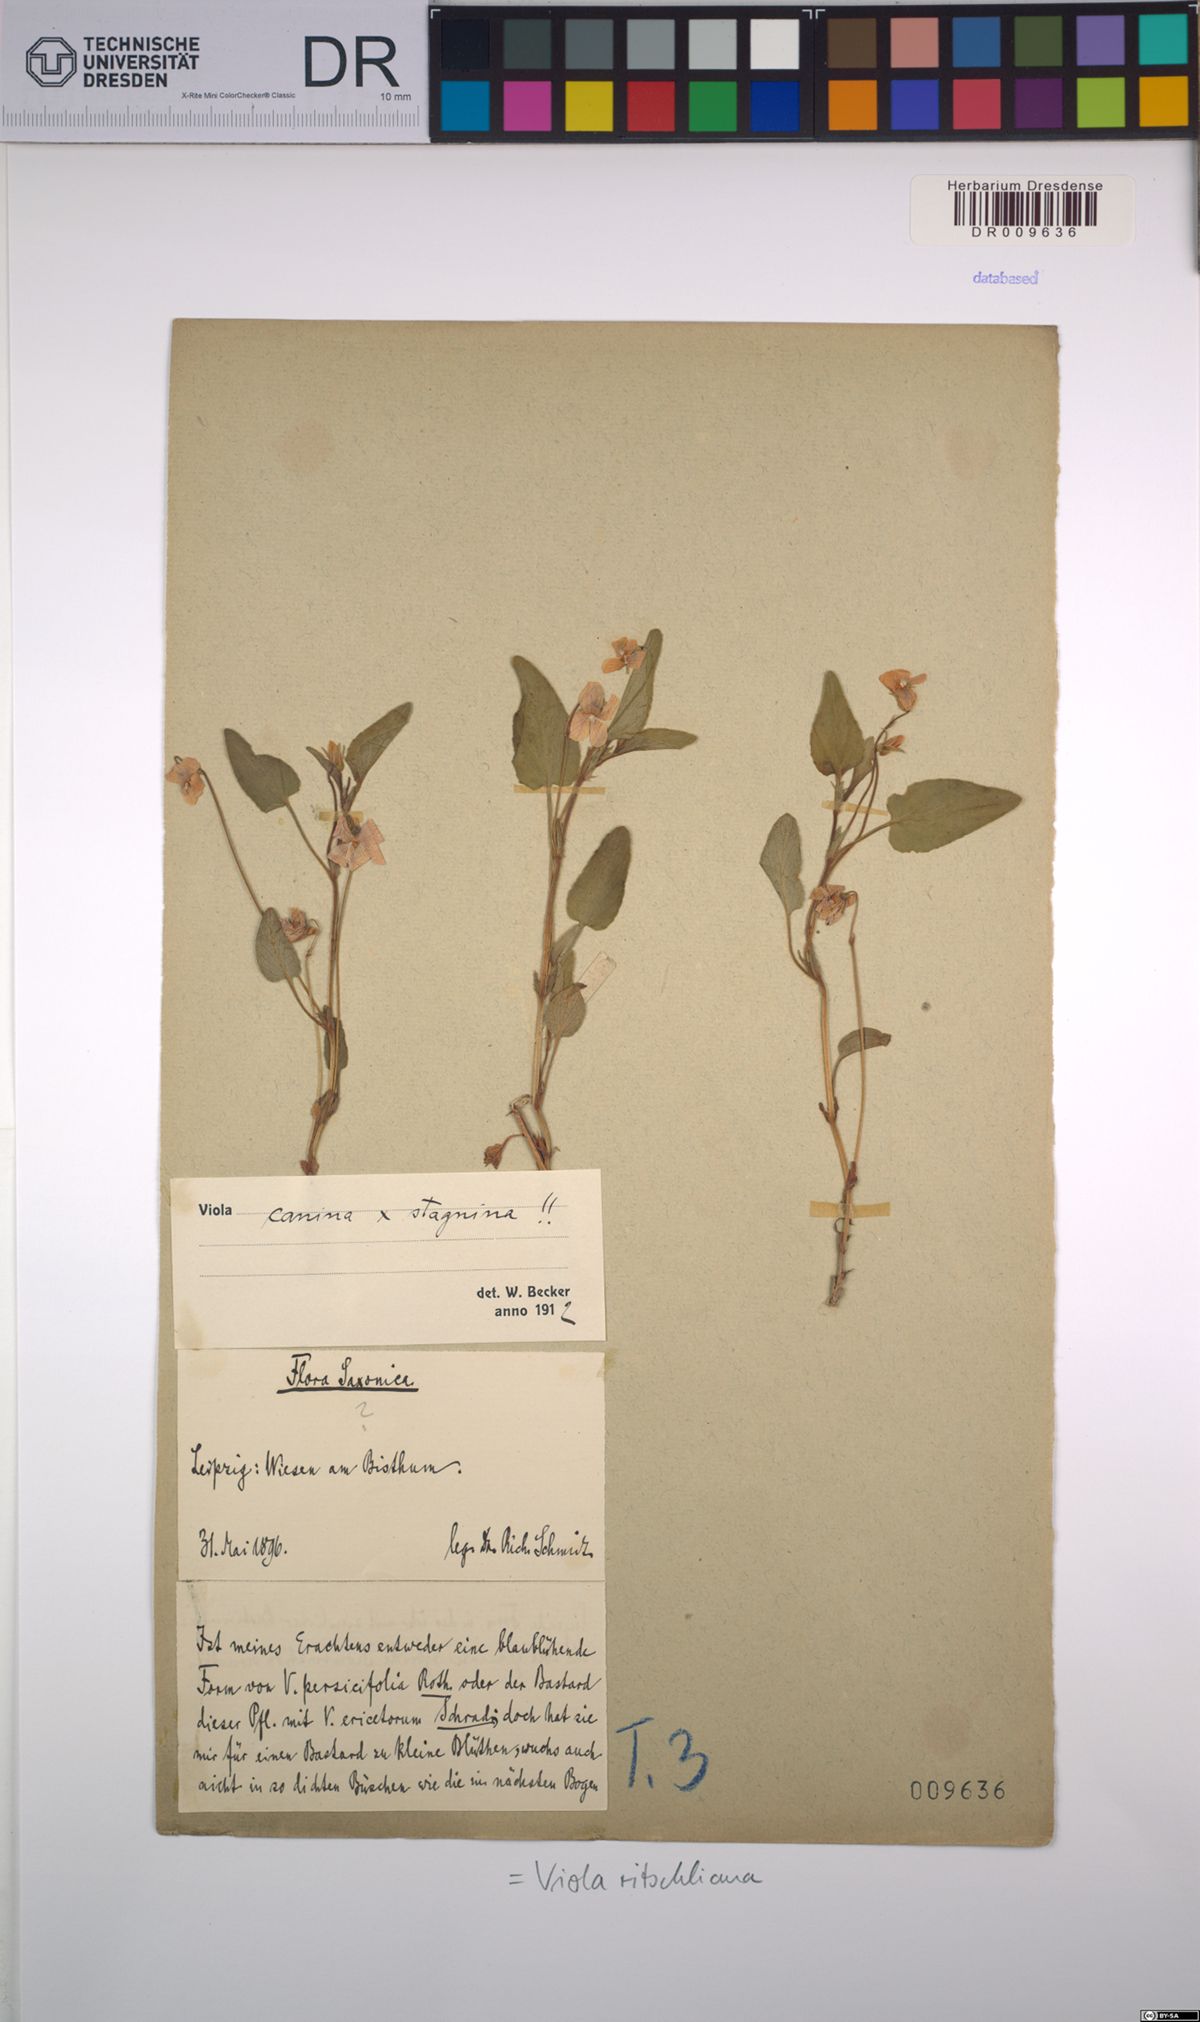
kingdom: Plantae
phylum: Tracheophyta
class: Magnoliopsida
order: Malpighiales
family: Violaceae
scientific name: Violaceae
